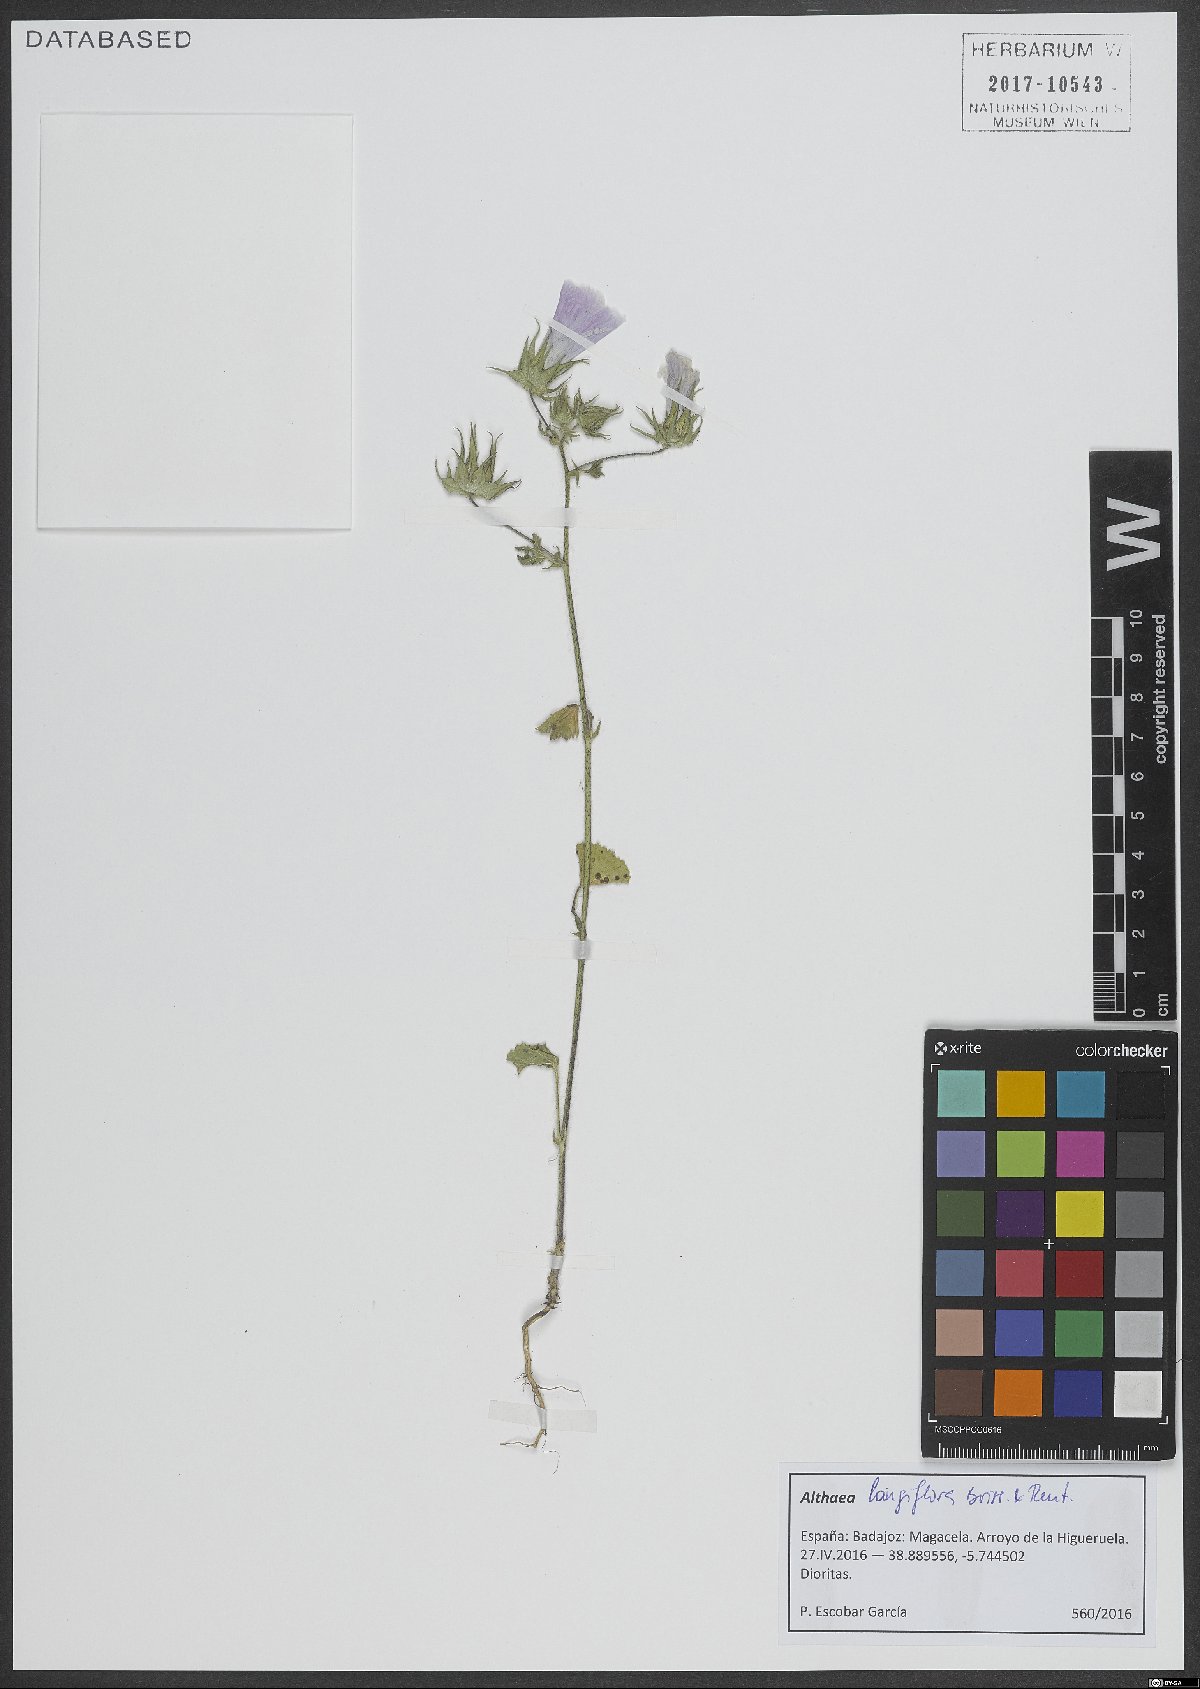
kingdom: Plantae
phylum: Tracheophyta
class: Magnoliopsida
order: Malvales
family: Malvaceae
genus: Malva
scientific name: Malva longiflora
